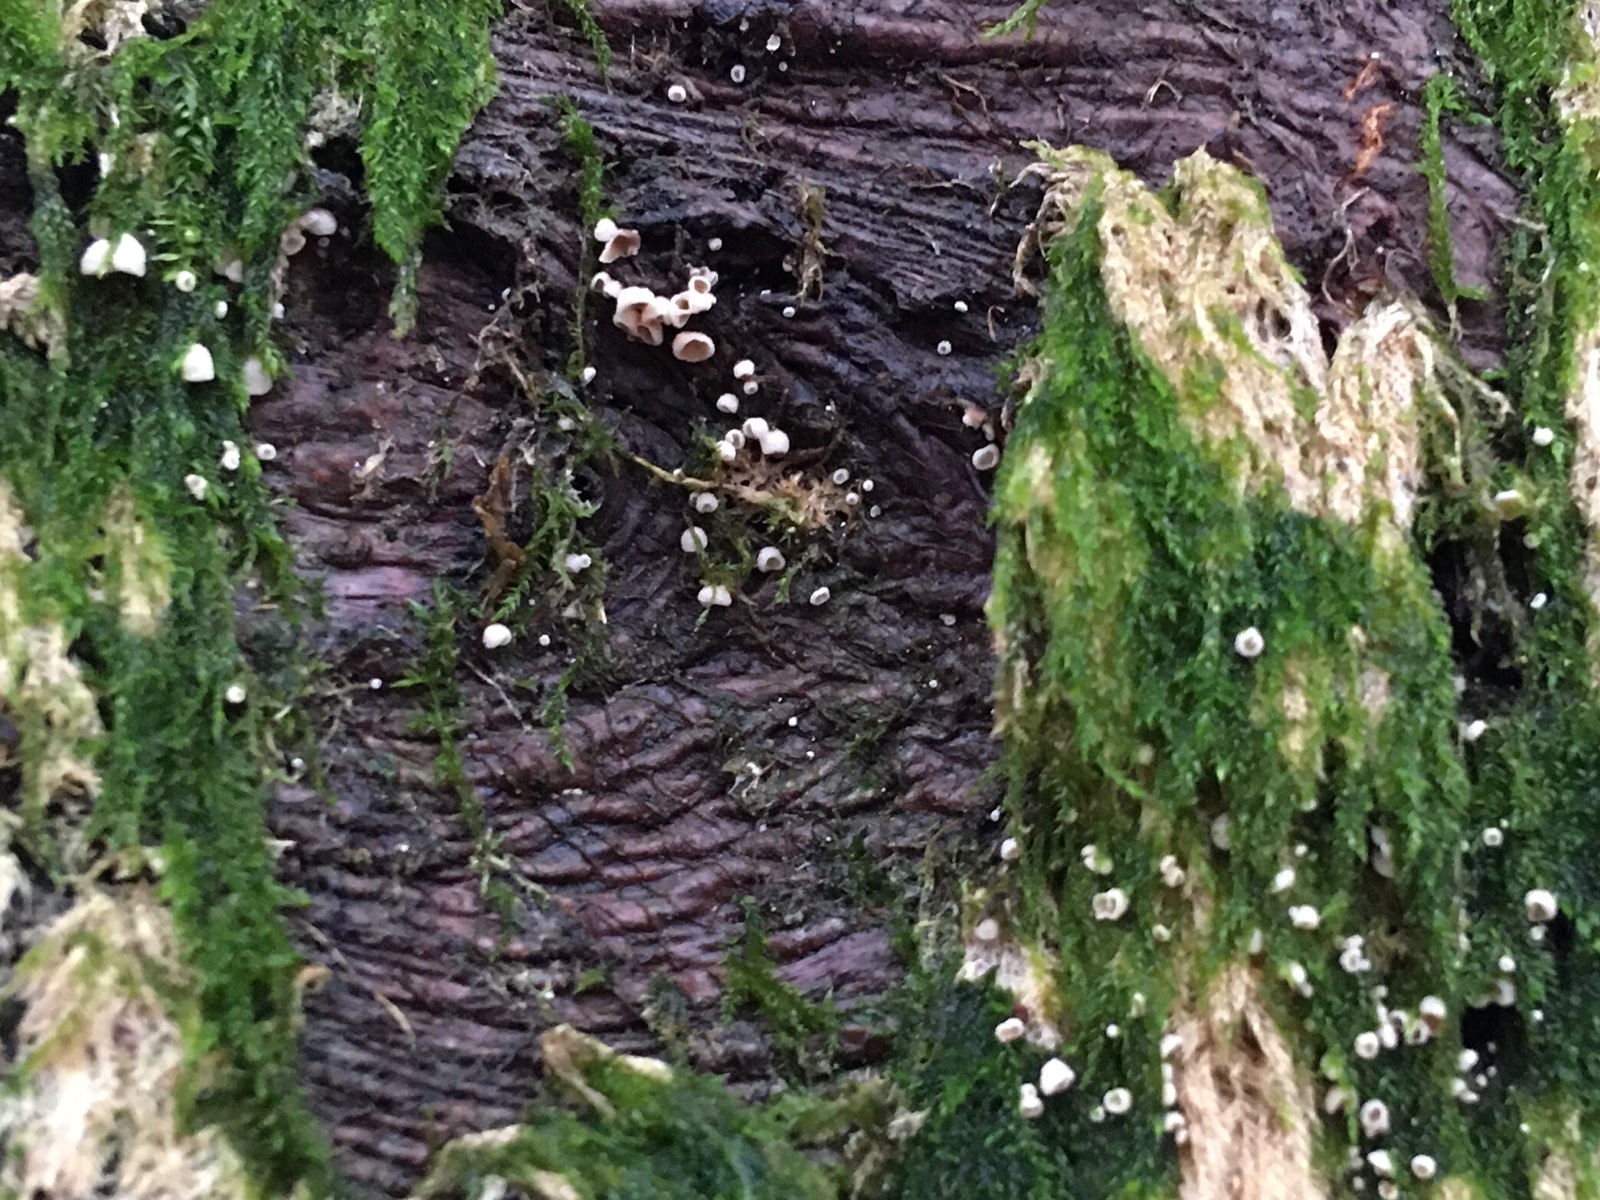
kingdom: Fungi
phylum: Basidiomycota
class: Agaricomycetes
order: Agaricales
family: Chromocyphellaceae
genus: Chromocyphella
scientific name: Chromocyphella muscicola
